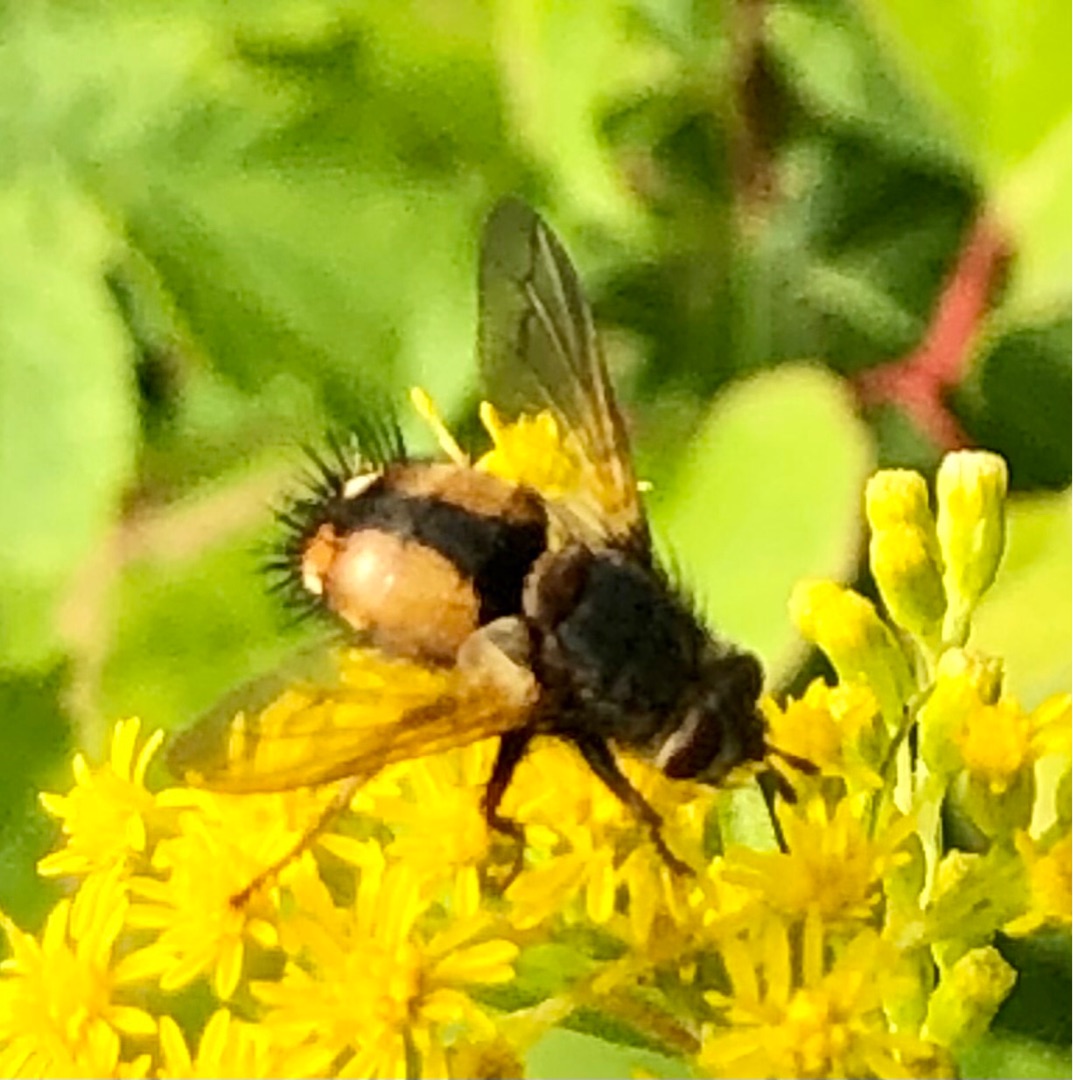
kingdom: Animalia
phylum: Arthropoda
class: Insecta
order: Diptera
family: Tachinidae
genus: Tachina
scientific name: Tachina fera
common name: Mellemfluen oskar
